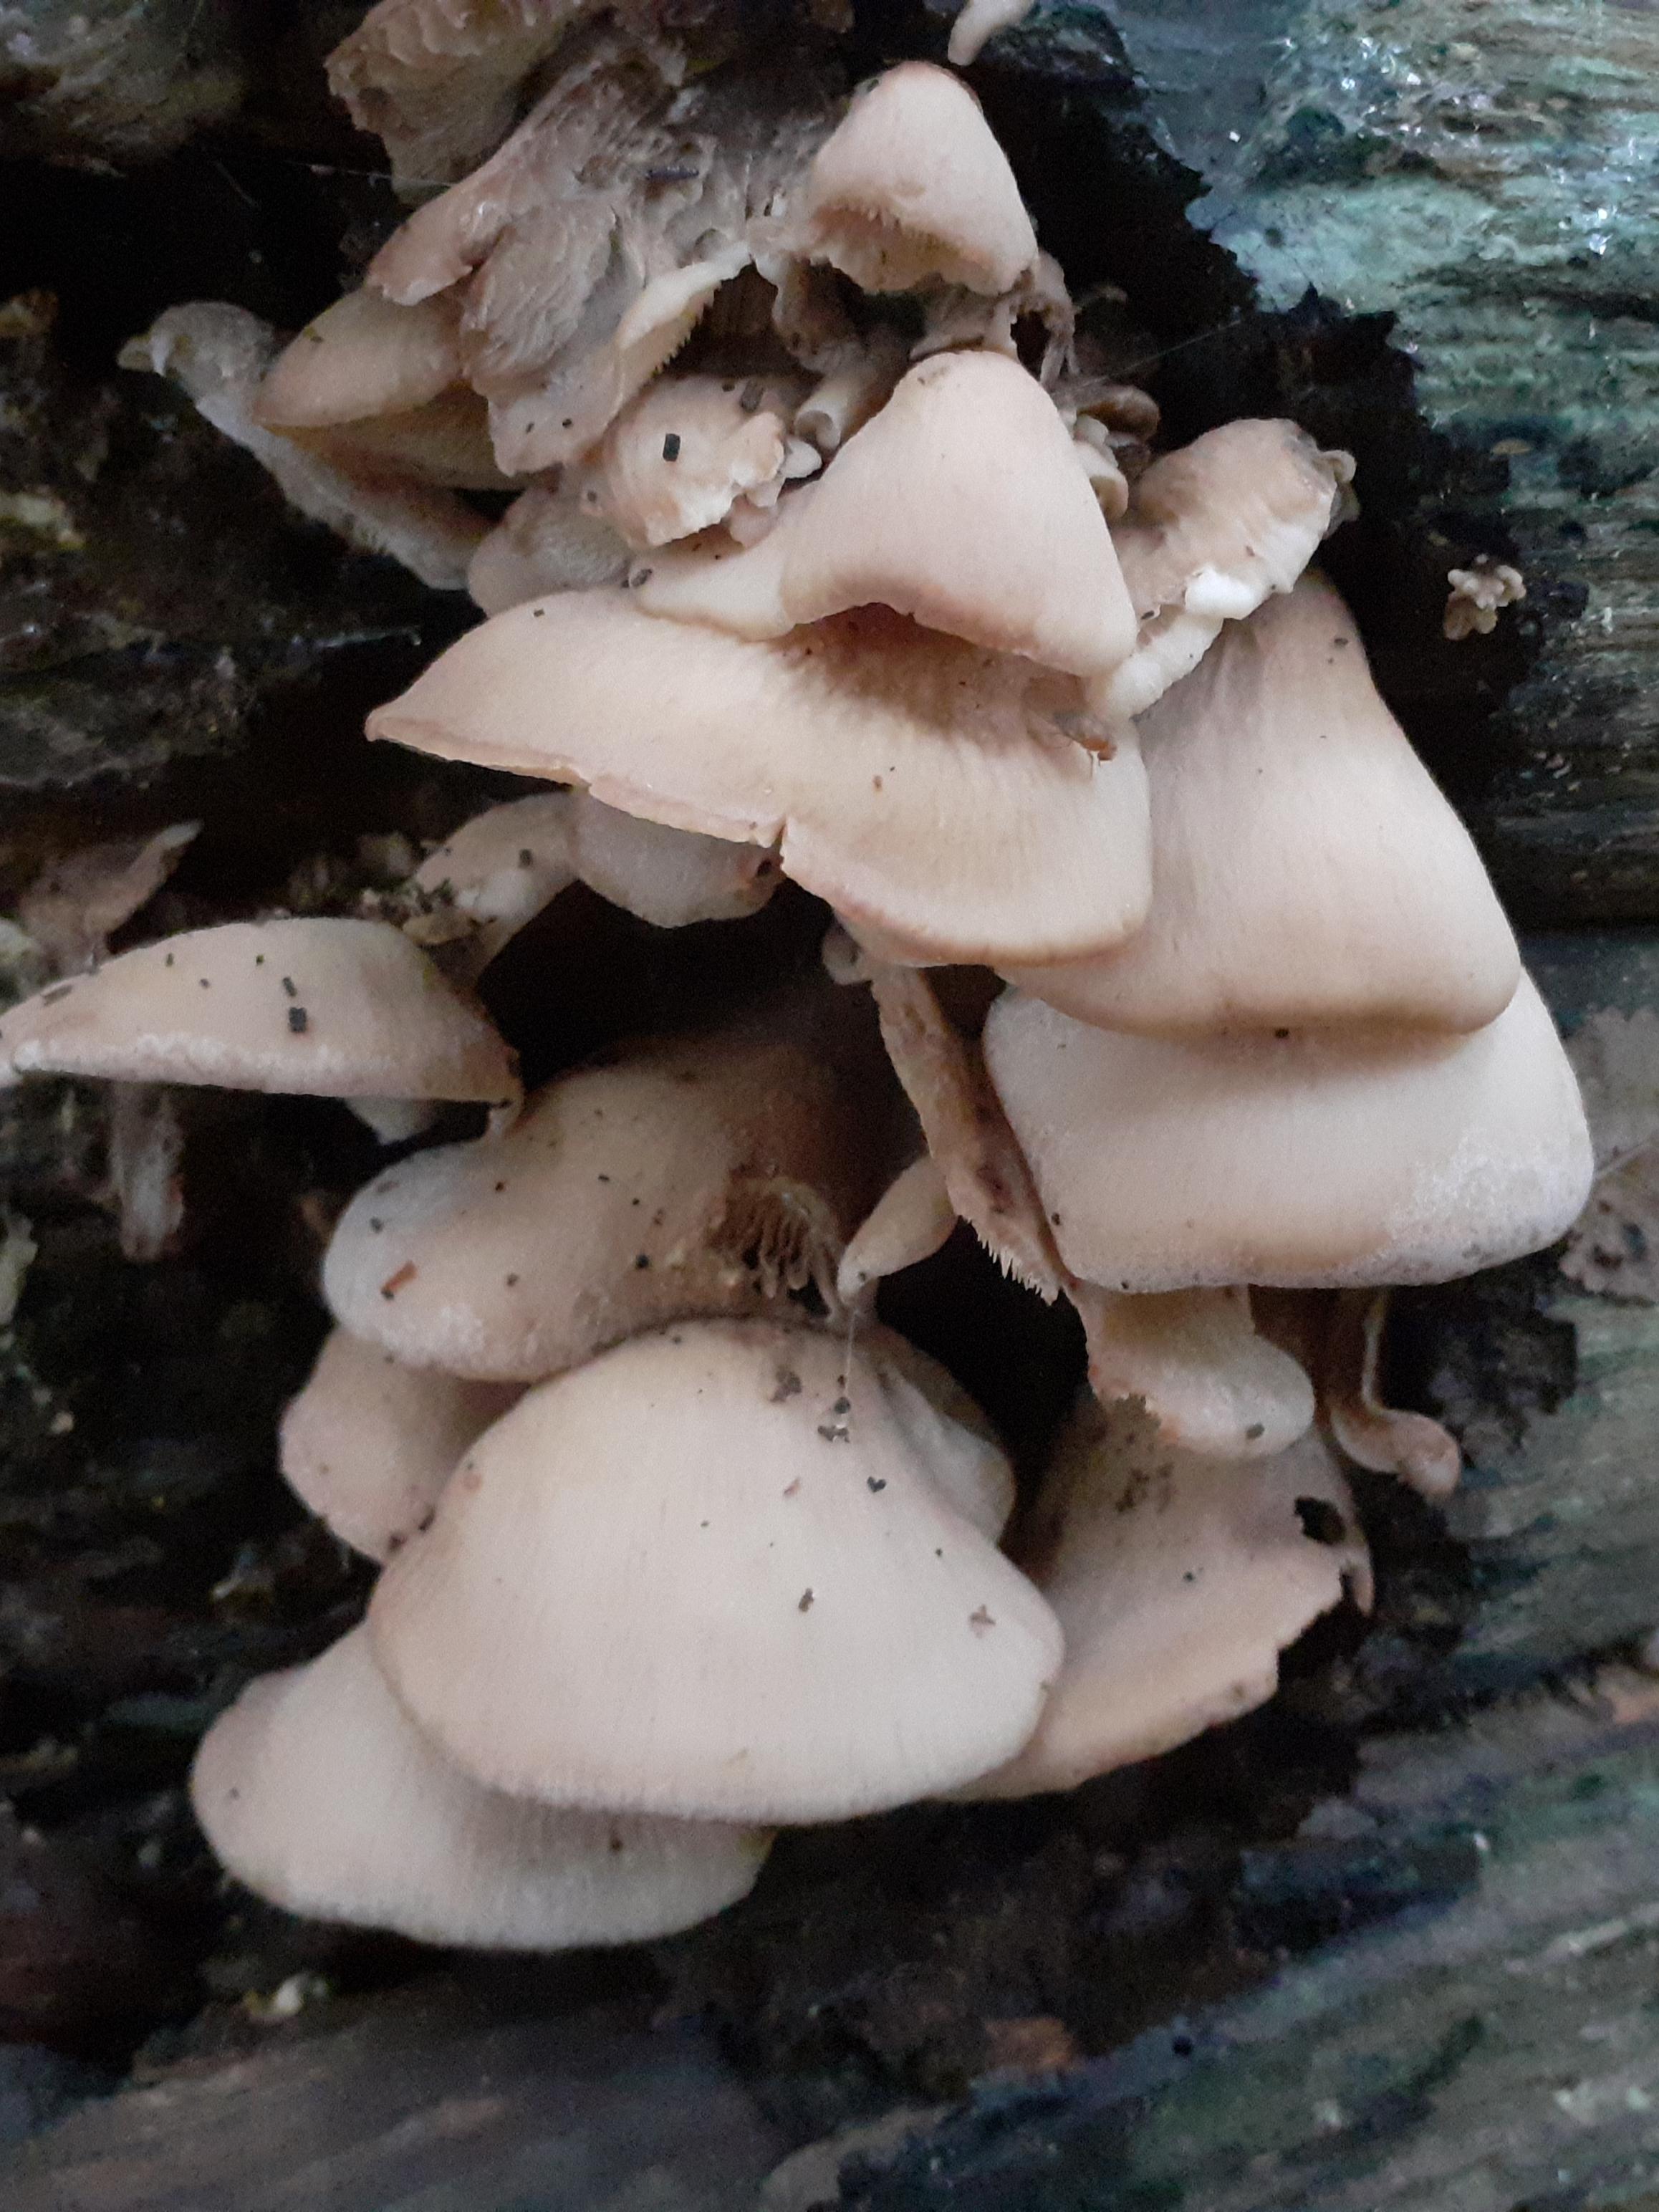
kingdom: Fungi
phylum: Basidiomycota
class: Agaricomycetes
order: Russulales
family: Auriscalpiaceae
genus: Lentinellus
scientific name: Lentinellus ursinus
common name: børstehåret savbladhat
